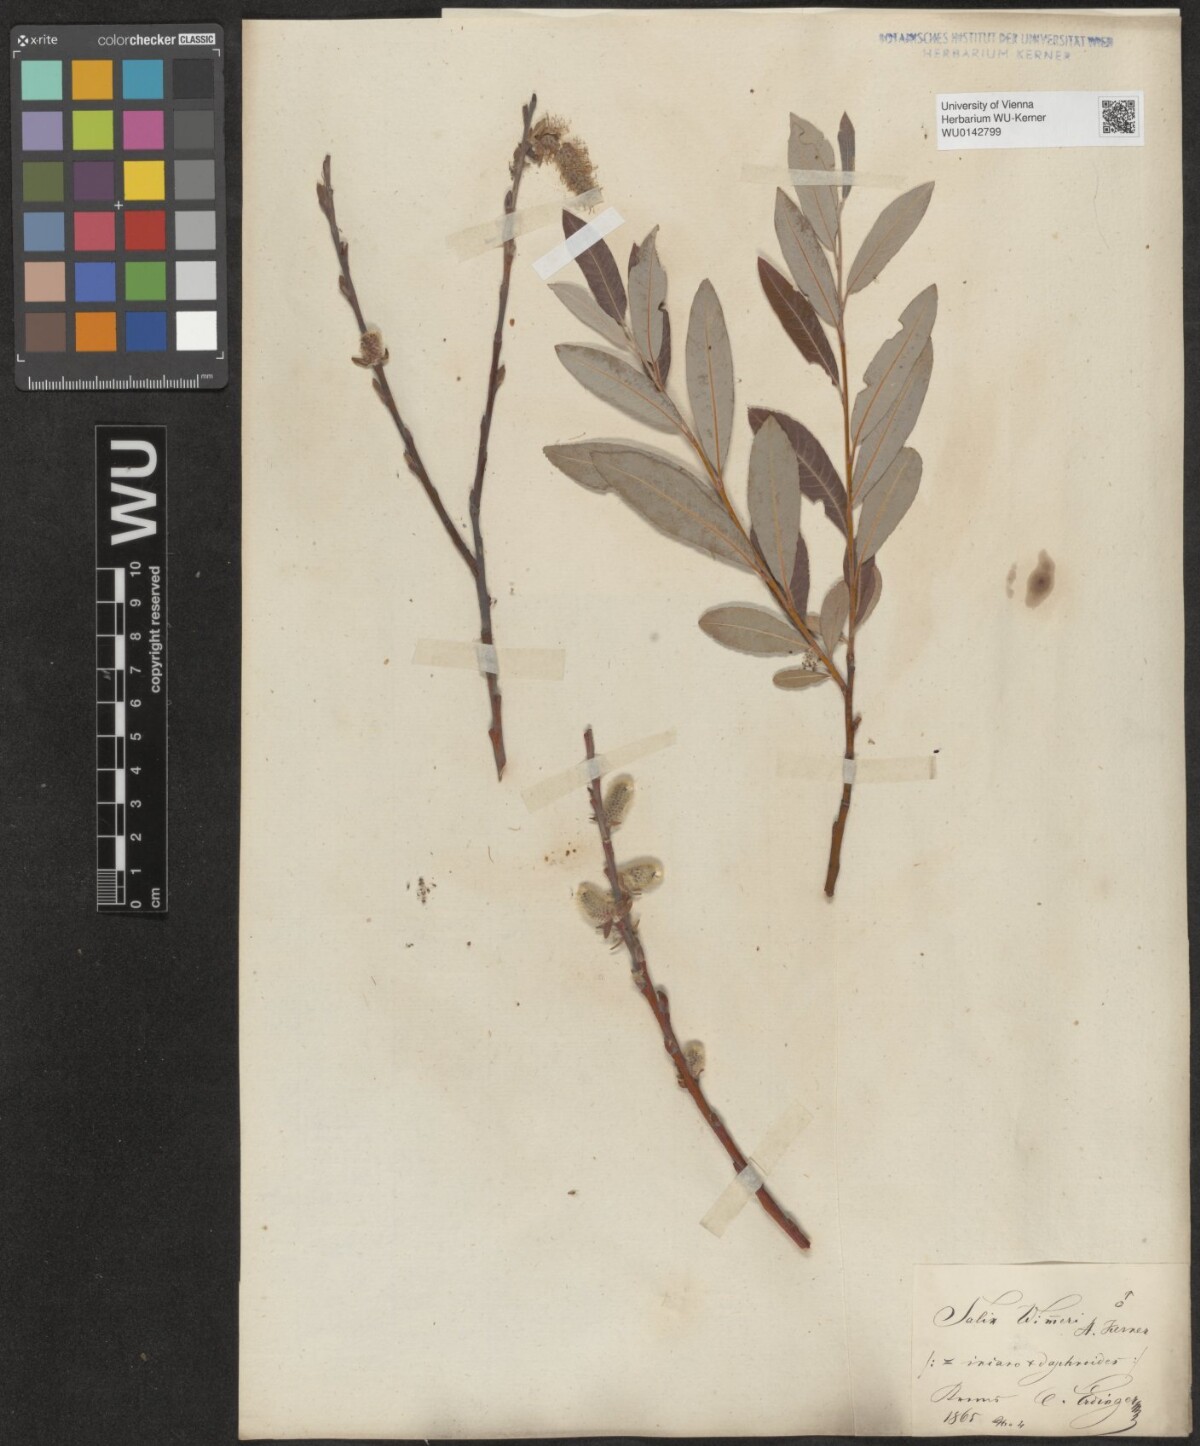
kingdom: Plantae
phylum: Tracheophyta
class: Magnoliopsida
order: Malpighiales
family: Salicaceae
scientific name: Salicaceae
